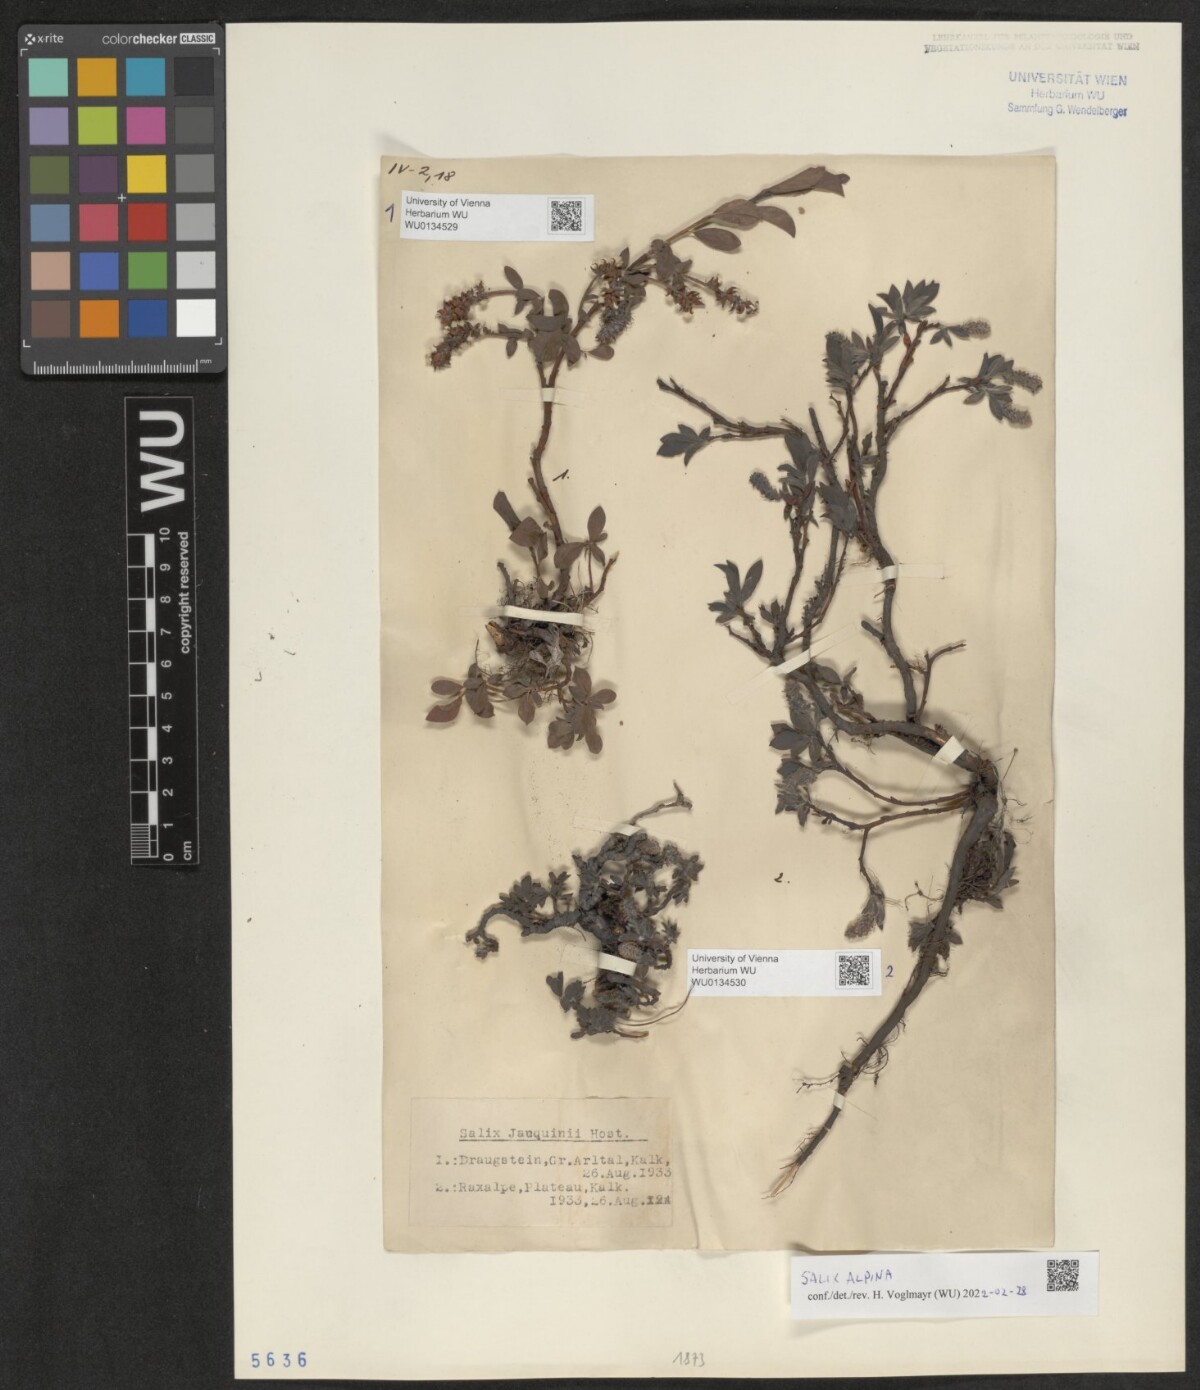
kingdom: Plantae
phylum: Tracheophyta
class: Magnoliopsida
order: Malpighiales
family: Salicaceae
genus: Salix
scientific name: Salix alpina
